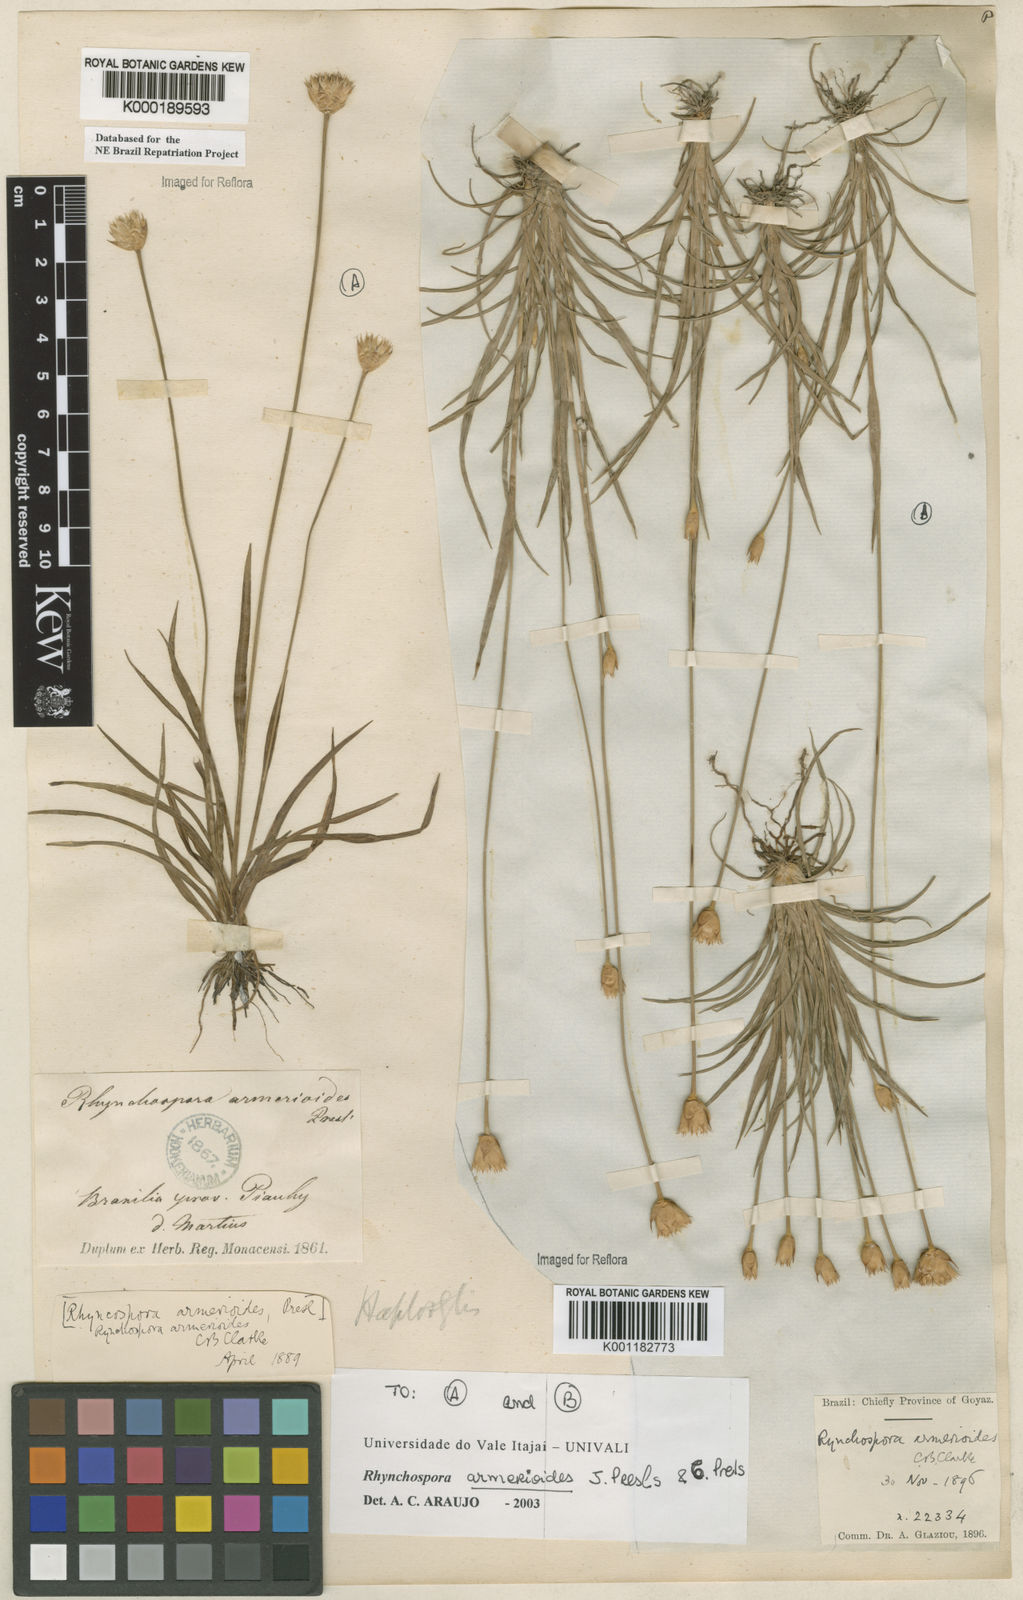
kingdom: Plantae
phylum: Tracheophyta
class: Liliopsida
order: Poales
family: Cyperaceae
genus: Rhynchospora
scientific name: Rhynchospora armerioides
